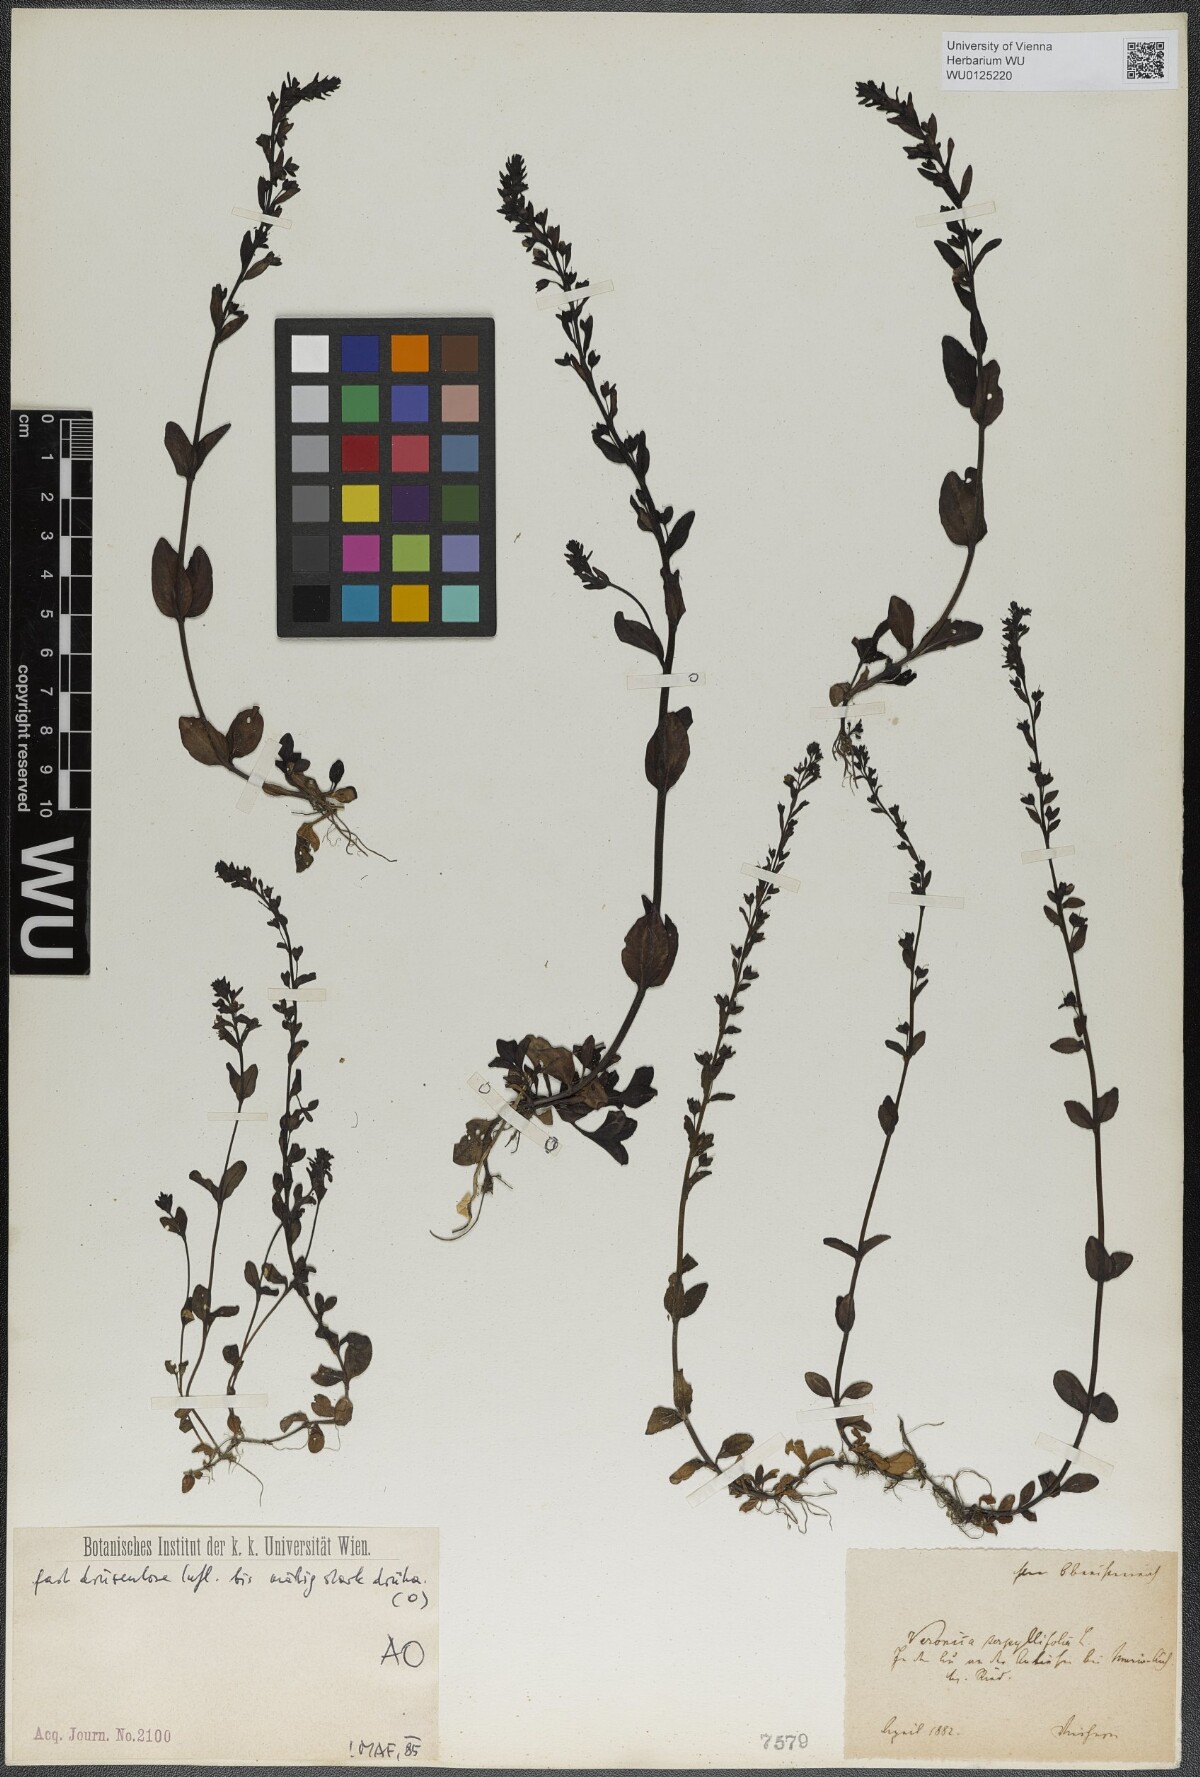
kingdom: Plantae
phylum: Tracheophyta
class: Magnoliopsida
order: Lamiales
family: Plantaginaceae
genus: Veronica
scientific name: Veronica serpyllifolia
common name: Thyme-leaved speedwell
